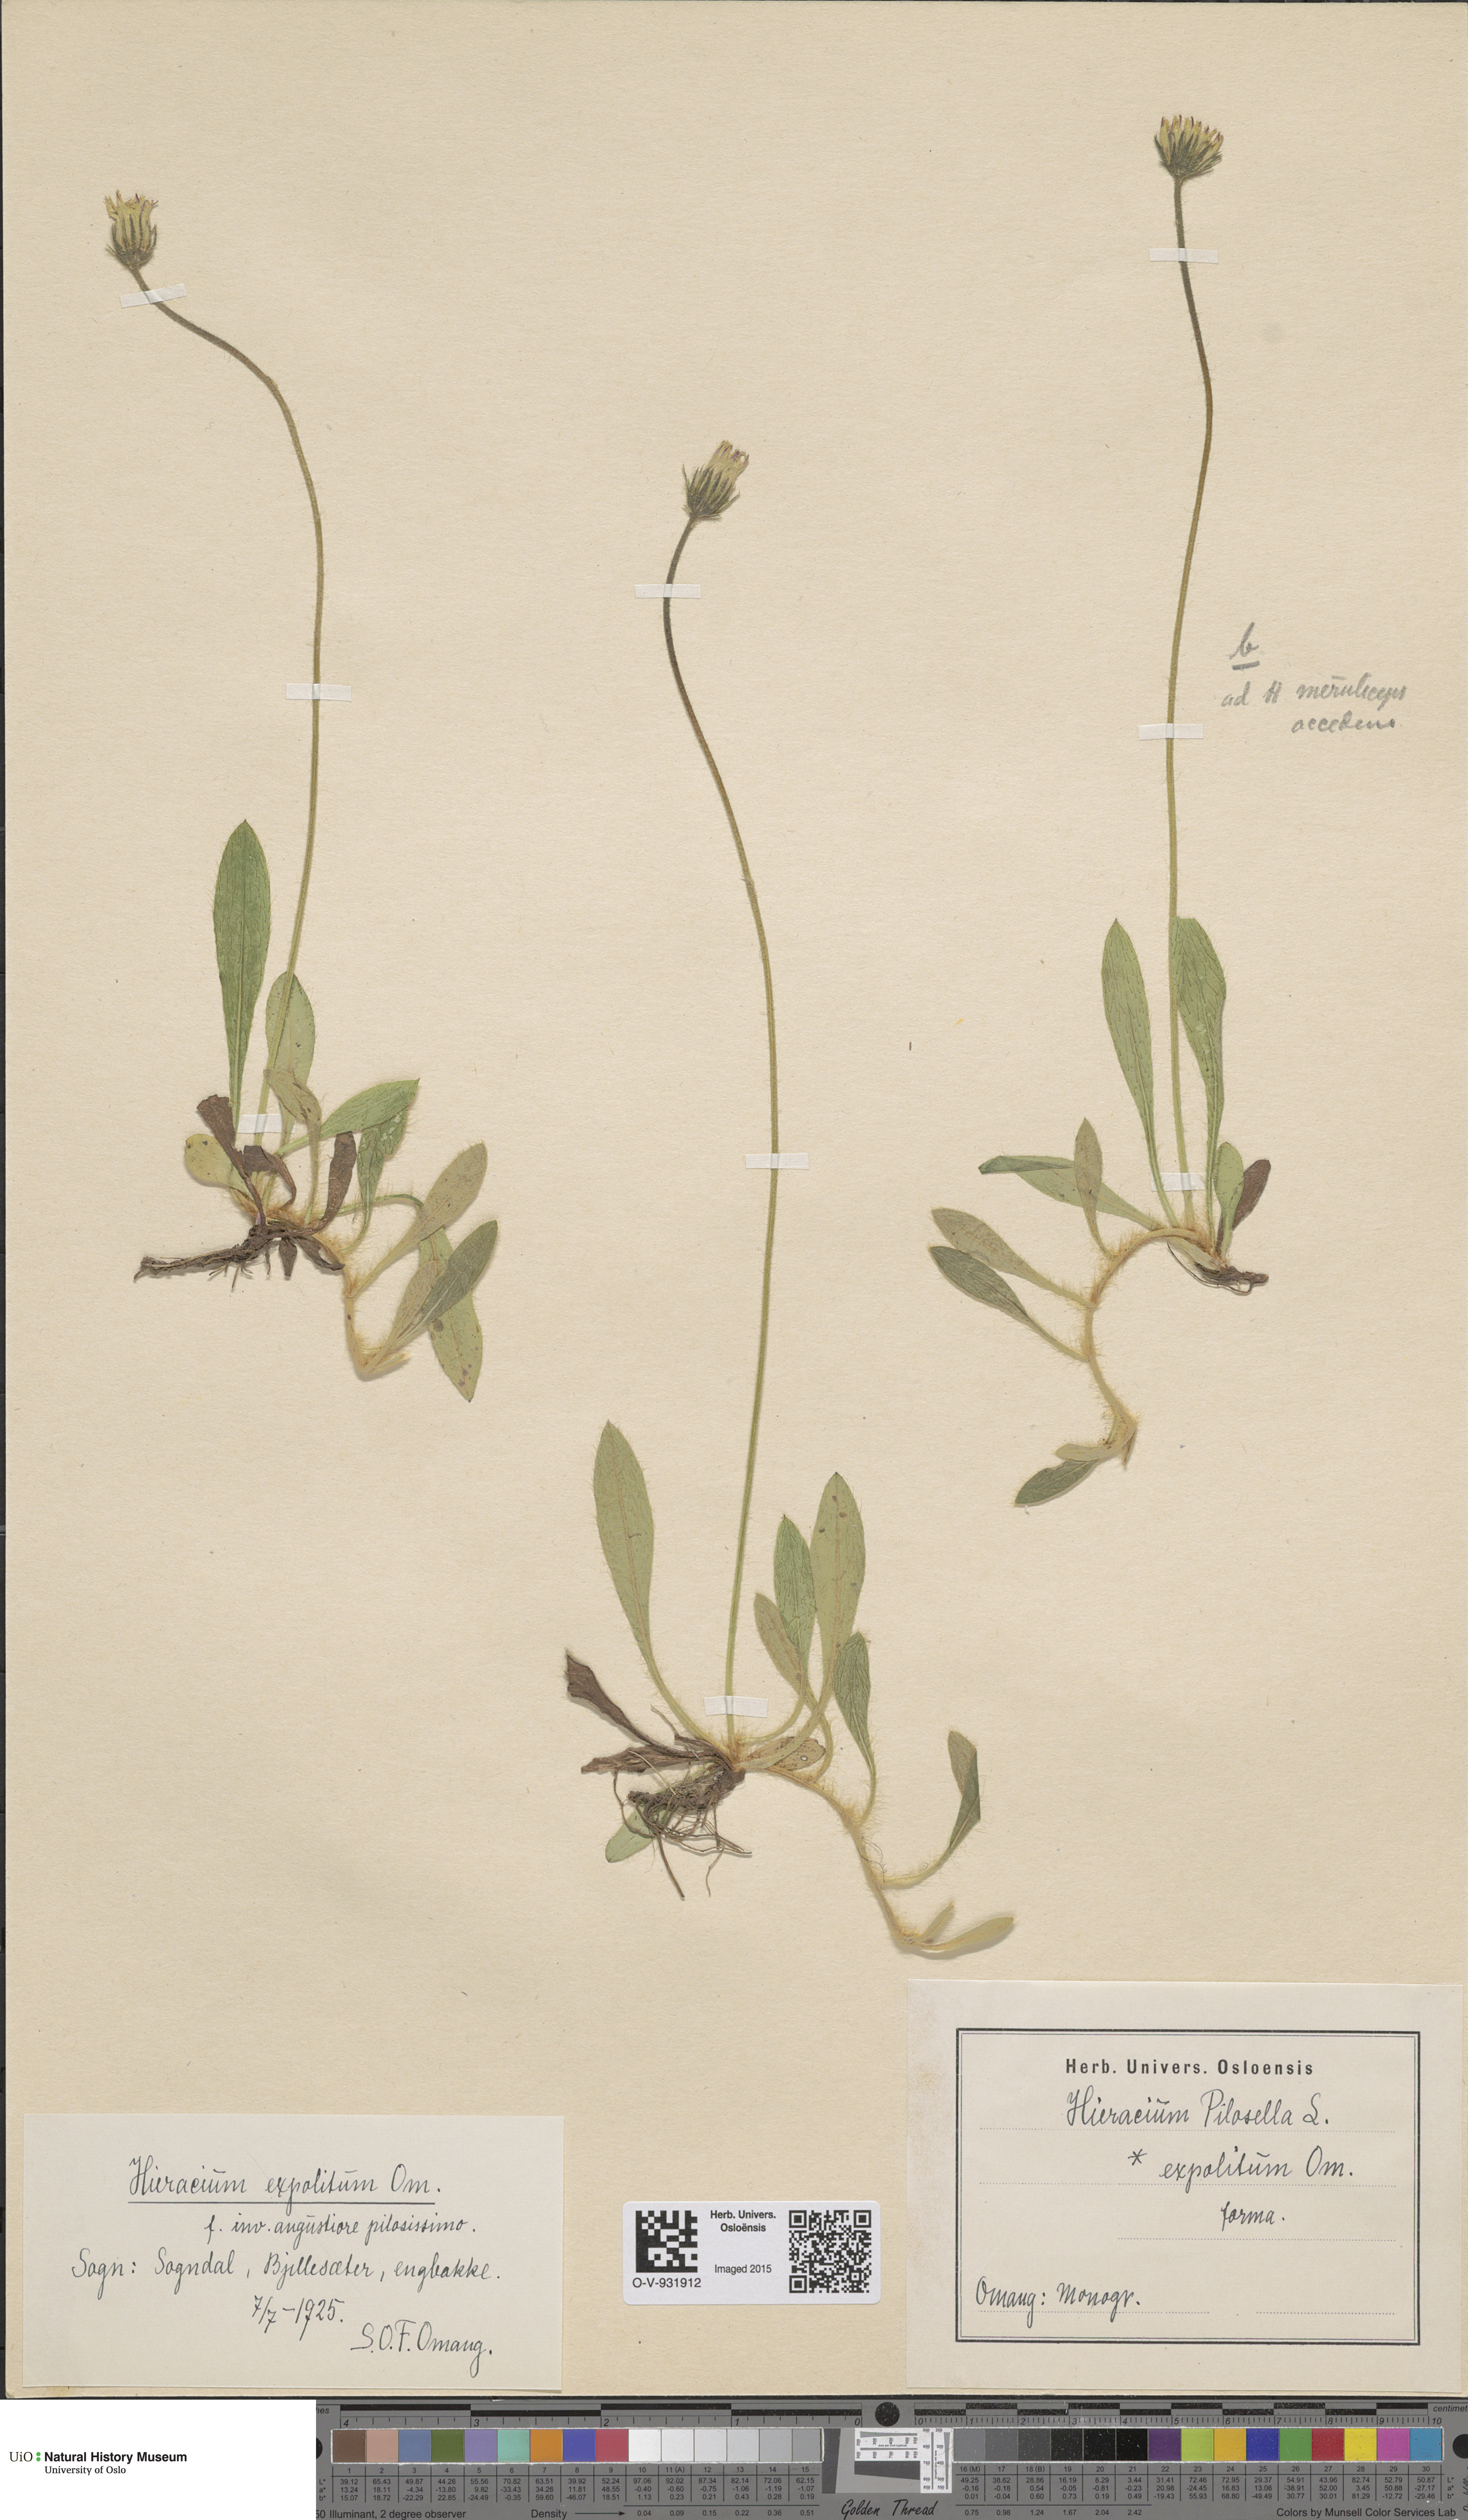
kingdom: Plantae
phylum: Tracheophyta
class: Magnoliopsida
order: Asterales
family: Asteraceae
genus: Pilosella
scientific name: Pilosella officinarum
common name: Mouse-ear hawkweed
